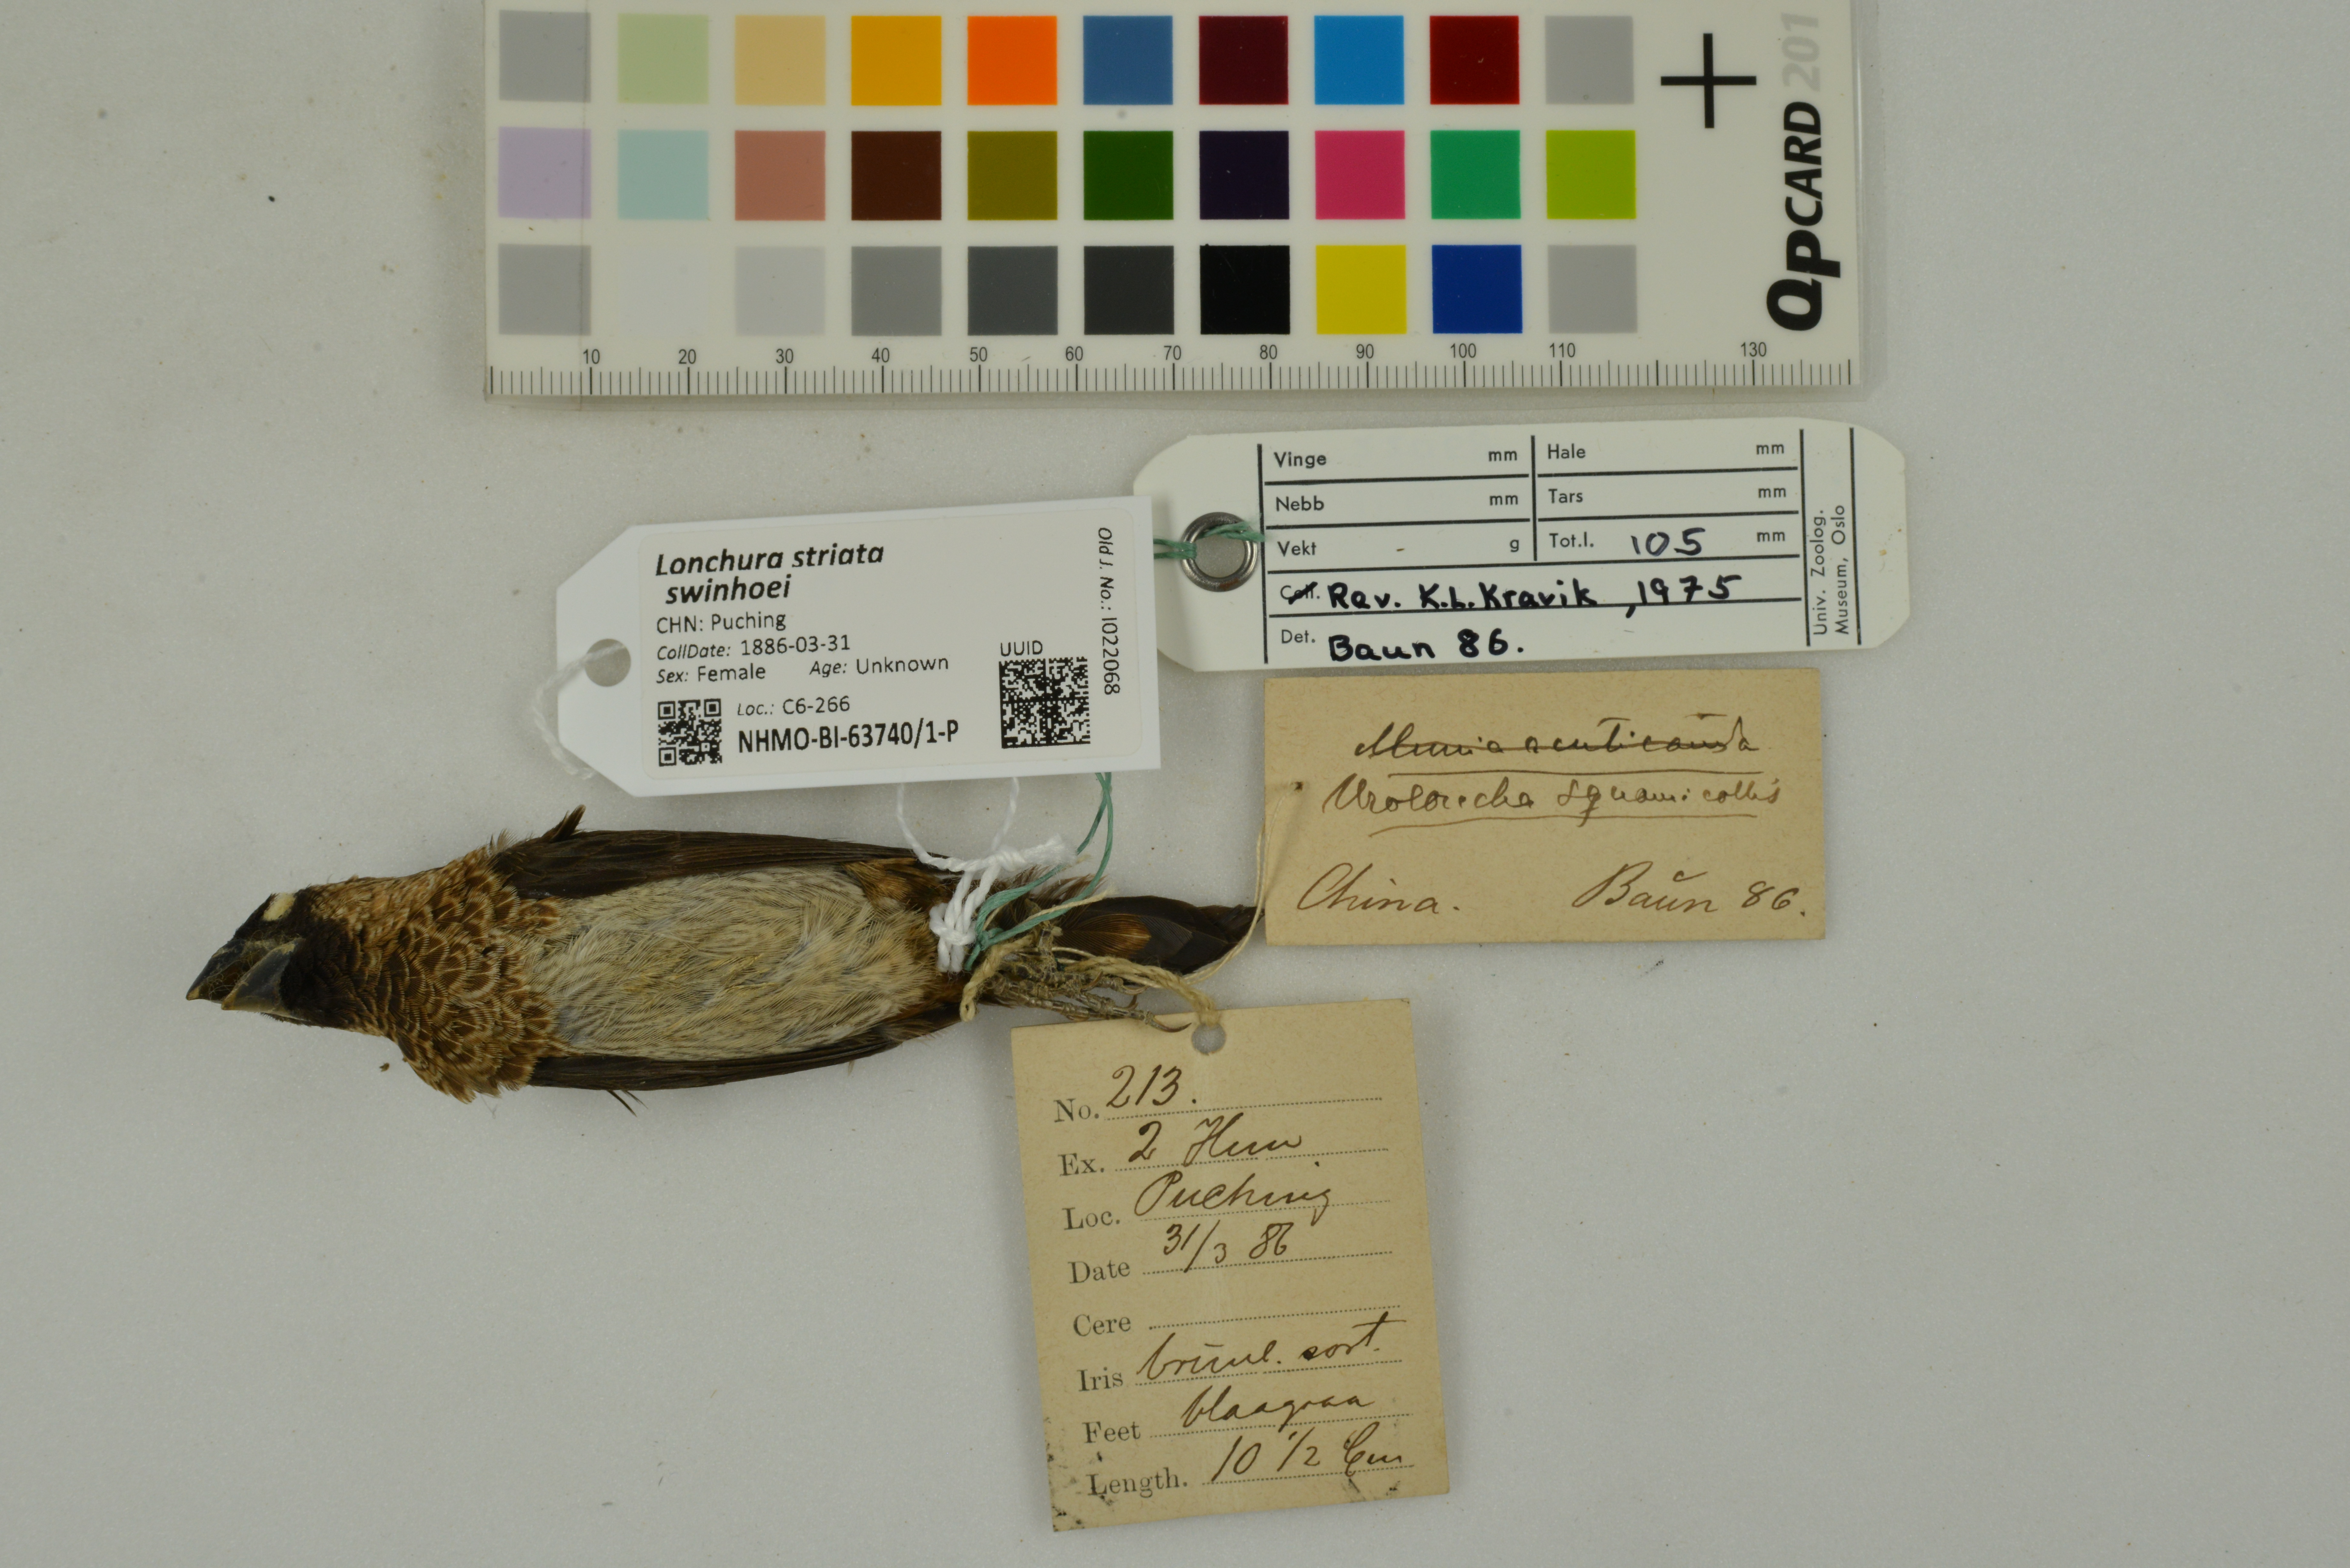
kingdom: Animalia
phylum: Chordata
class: Aves
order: Passeriformes
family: Estrildidae
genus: Lonchura
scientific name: Lonchura striata
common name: White-rumped munia
